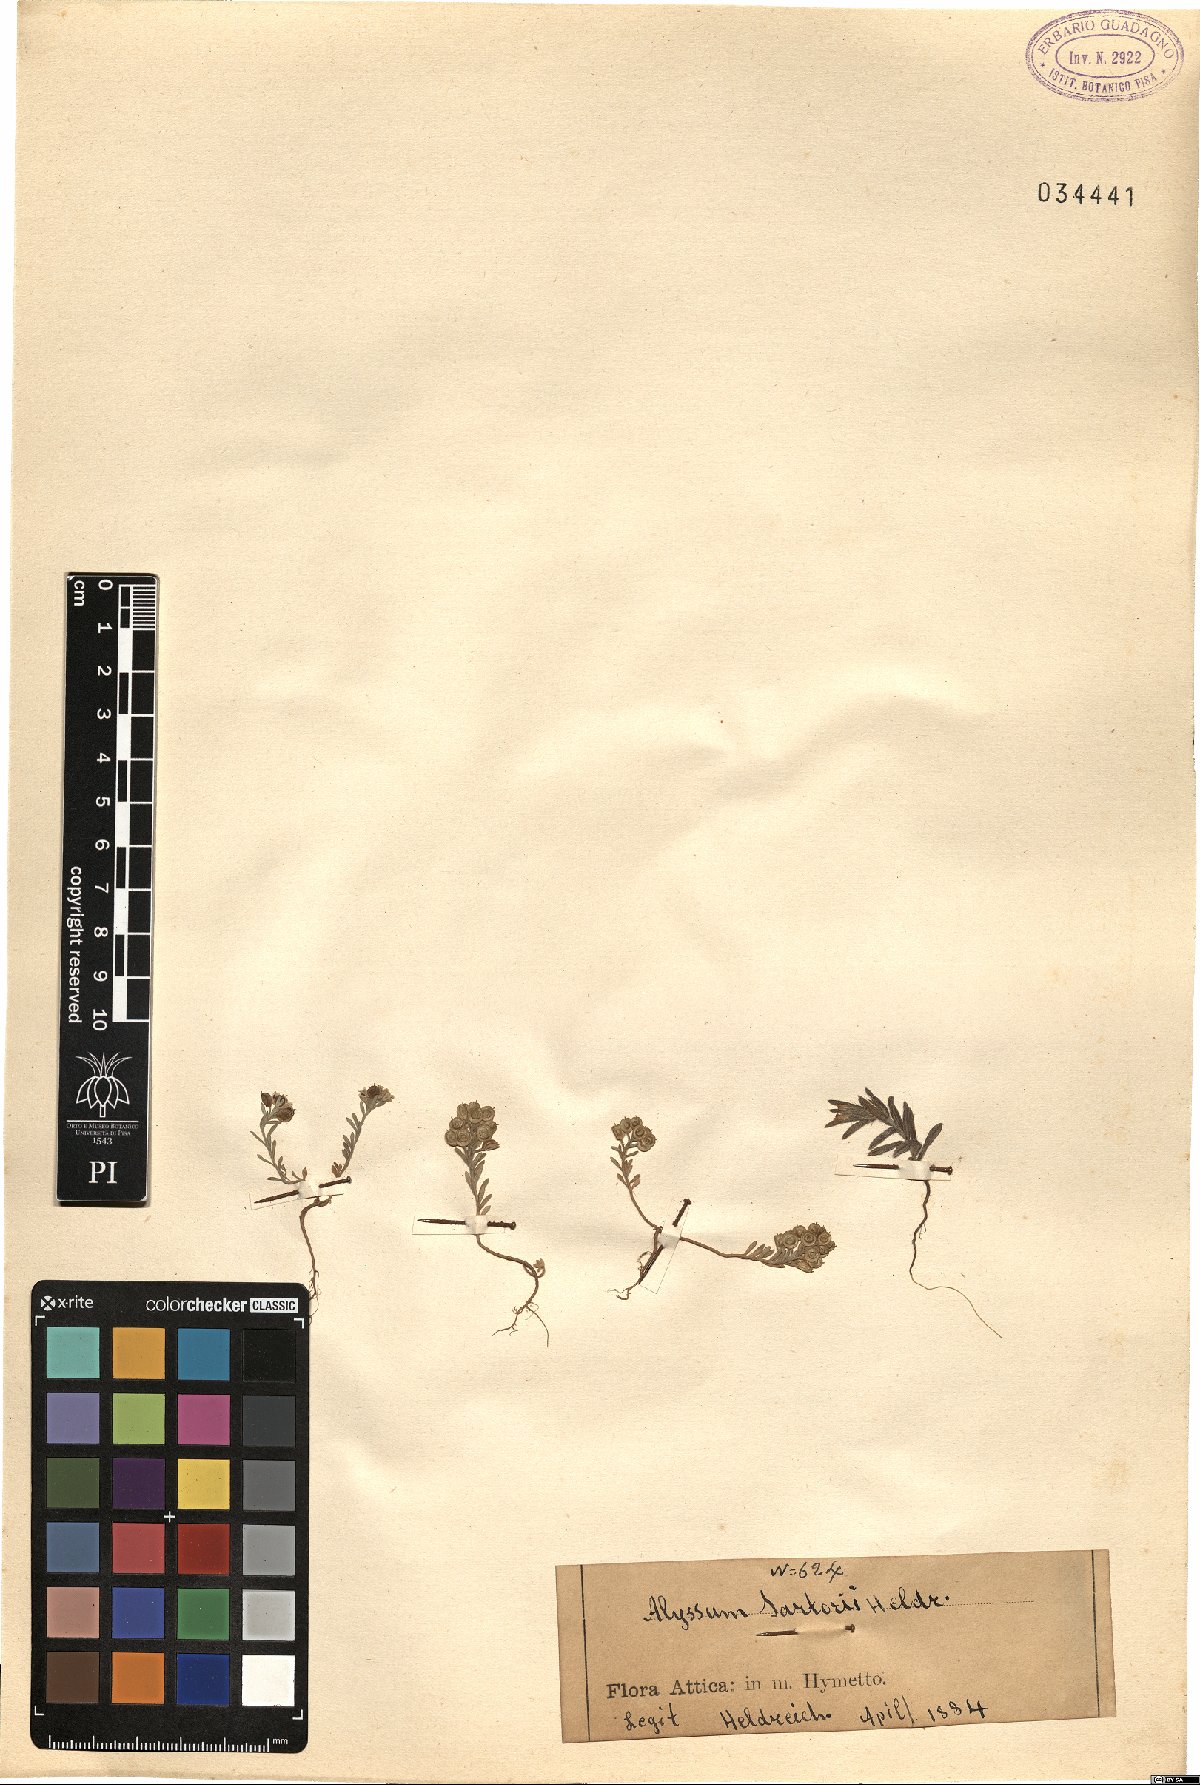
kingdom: Plantae
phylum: Tracheophyta
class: Magnoliopsida
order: Brassicales
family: Brassicaceae
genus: Alyssum
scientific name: Alyssum turkestanicum
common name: Desert alyssum
